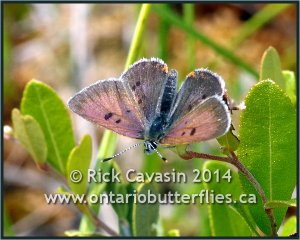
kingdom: Animalia
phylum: Arthropoda
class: Insecta
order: Lepidoptera
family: Sesiidae
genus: Sesia
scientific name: Sesia Lycaena epixanthe
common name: Bog Copper
